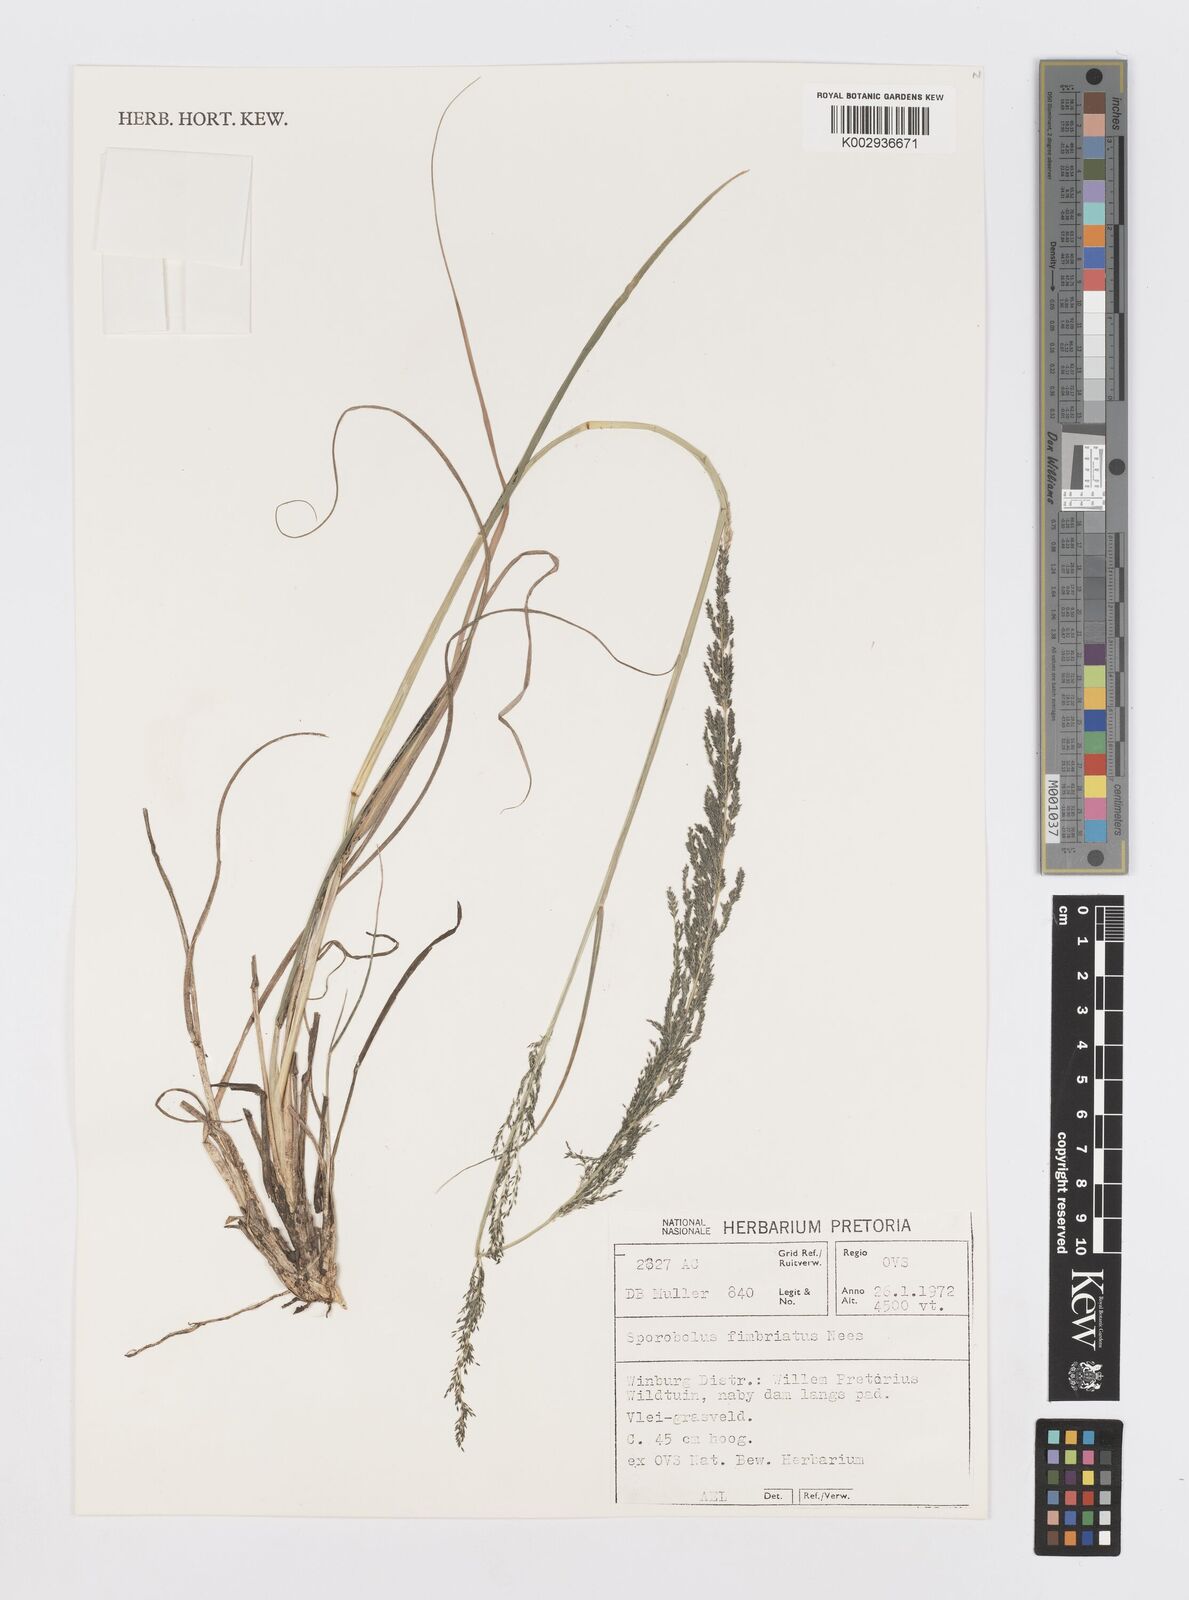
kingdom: Plantae
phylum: Tracheophyta
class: Liliopsida
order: Poales
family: Poaceae
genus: Sporobolus
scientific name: Sporobolus fimbriatus
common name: Fringed dropseed
